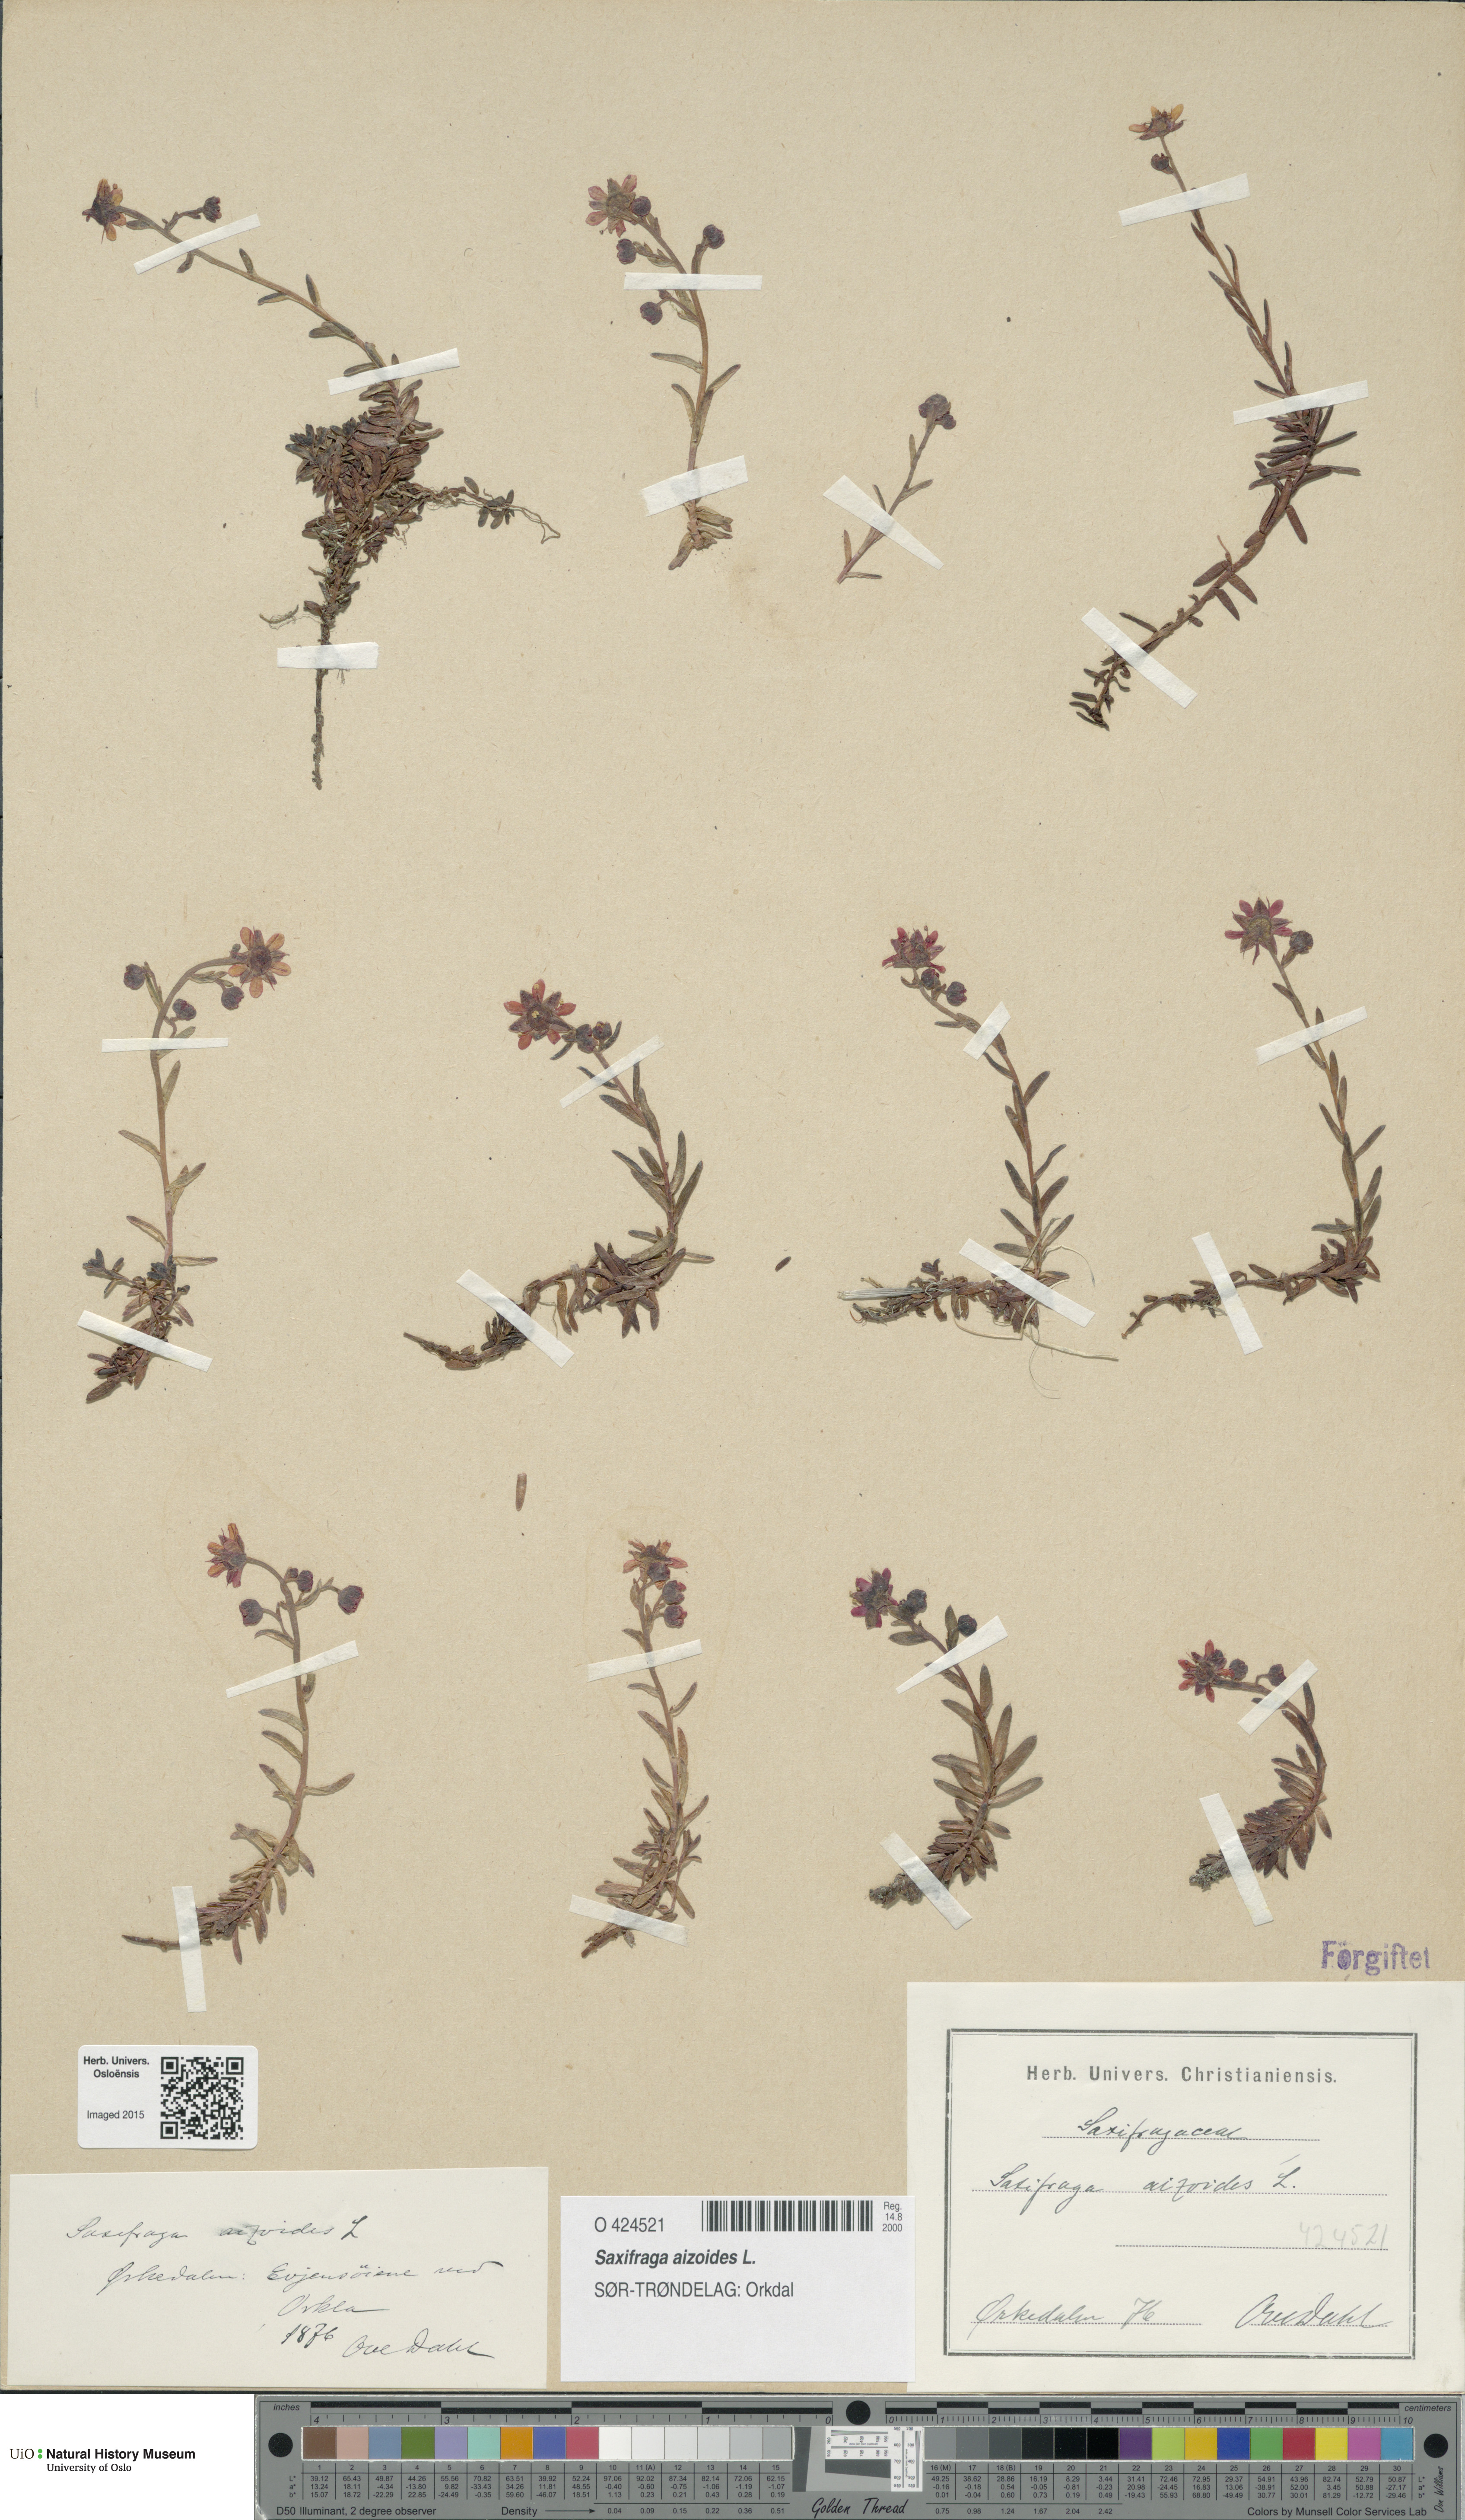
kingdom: Plantae
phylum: Tracheophyta
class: Magnoliopsida
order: Saxifragales
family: Saxifragaceae
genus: Saxifraga
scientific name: Saxifraga aizoides
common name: Yellow mountain saxifrage
